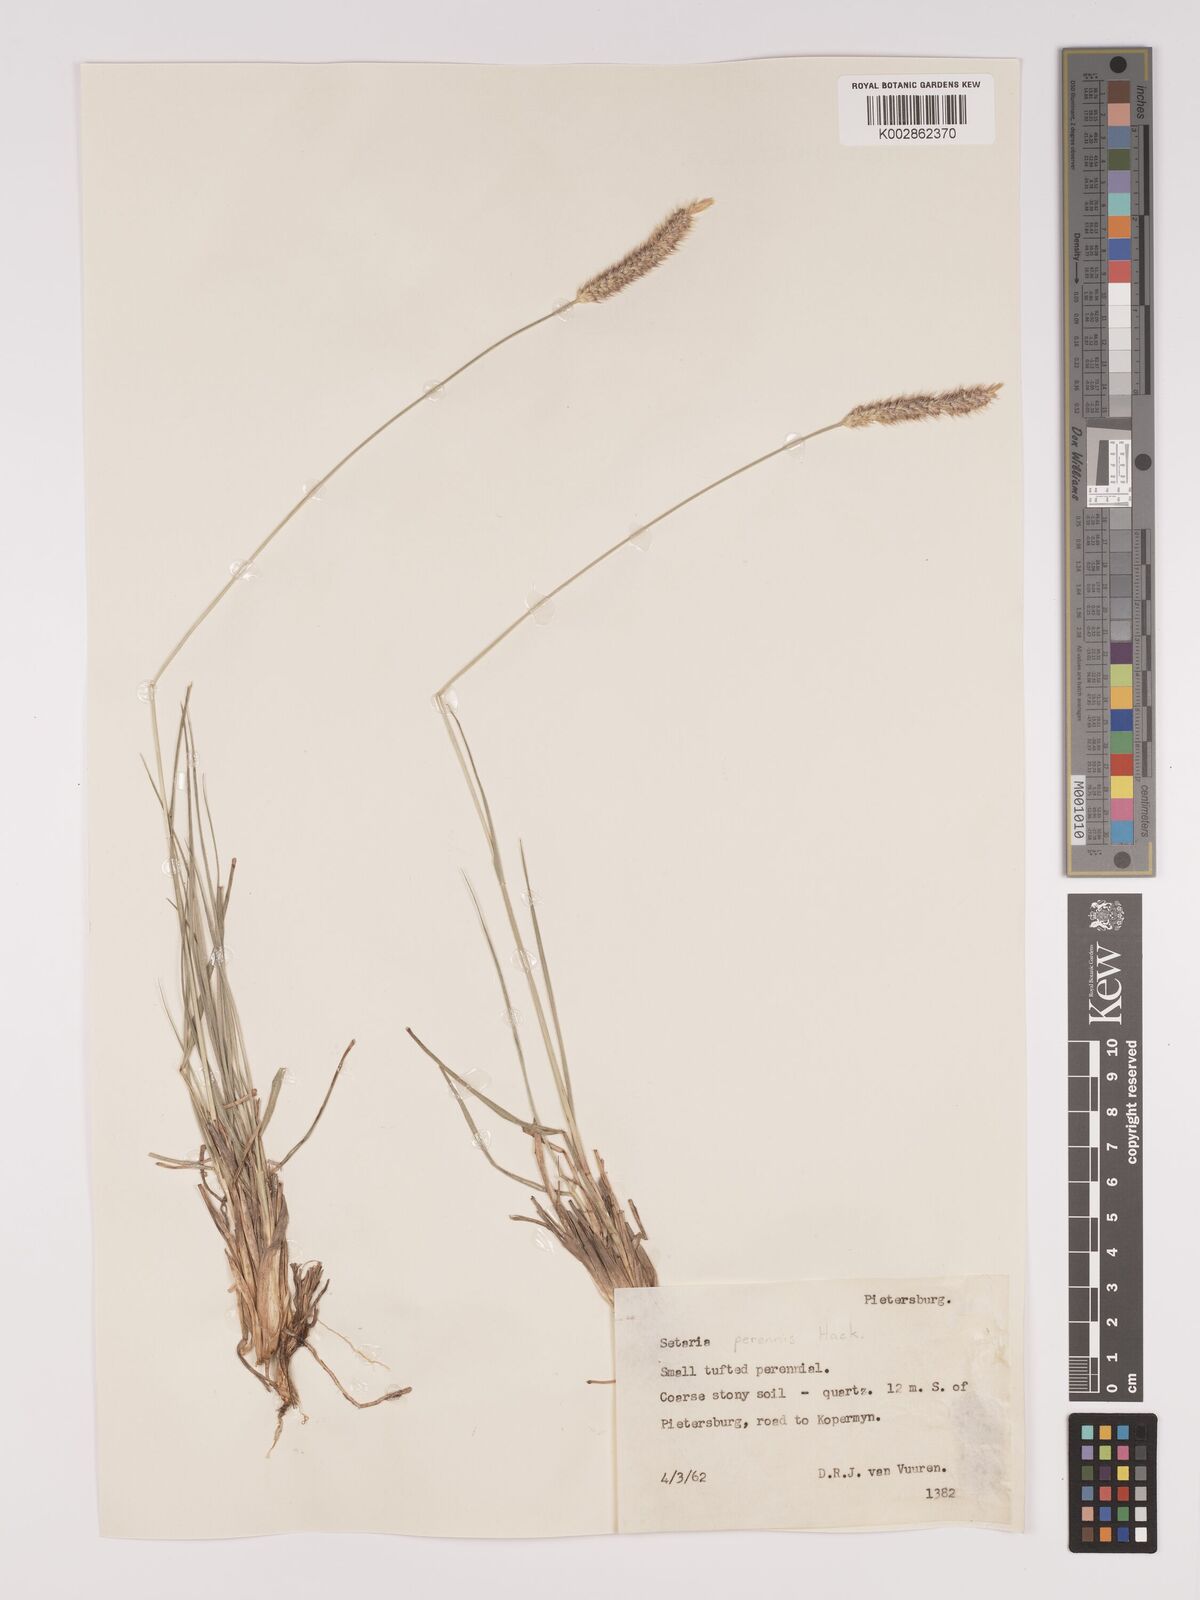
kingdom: Plantae
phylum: Tracheophyta
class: Liliopsida
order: Poales
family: Poaceae
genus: Setaria
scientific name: Setaria
